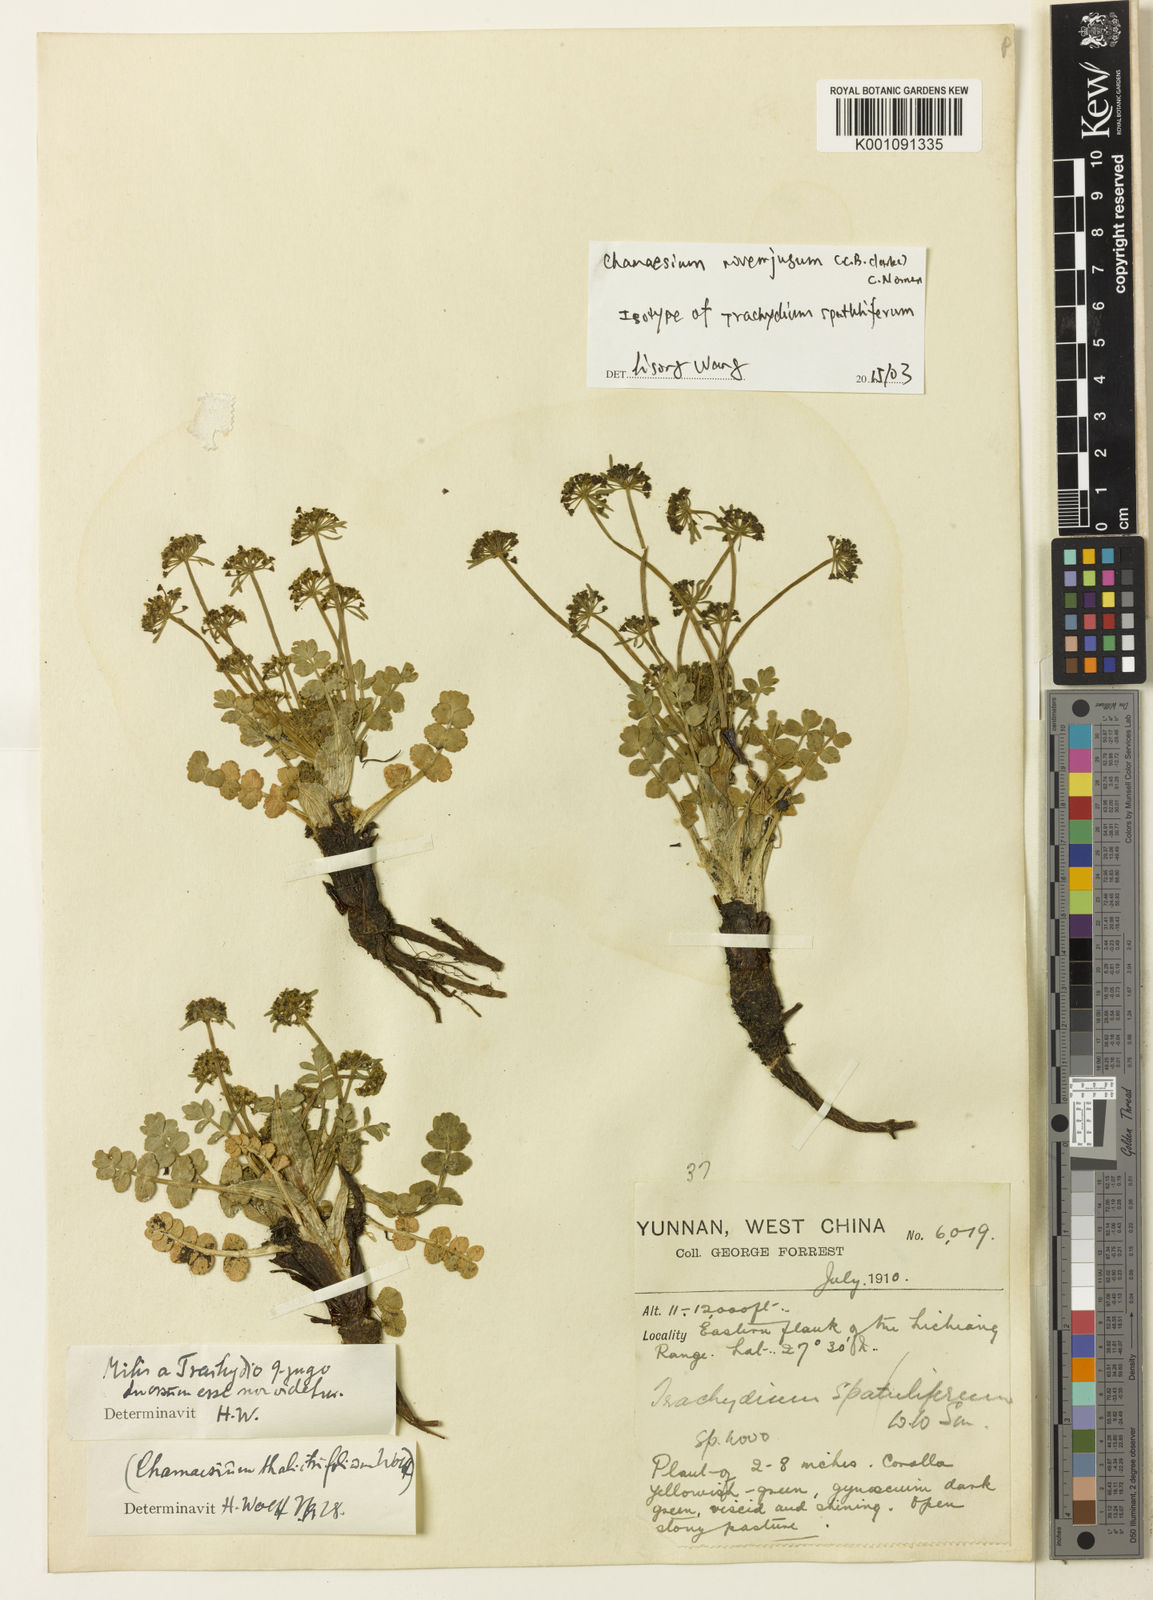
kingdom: Plantae
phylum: Tracheophyta
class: Magnoliopsida
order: Apiales
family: Apiaceae
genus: Chamaesium
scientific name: Chamaesium novem-jugum
